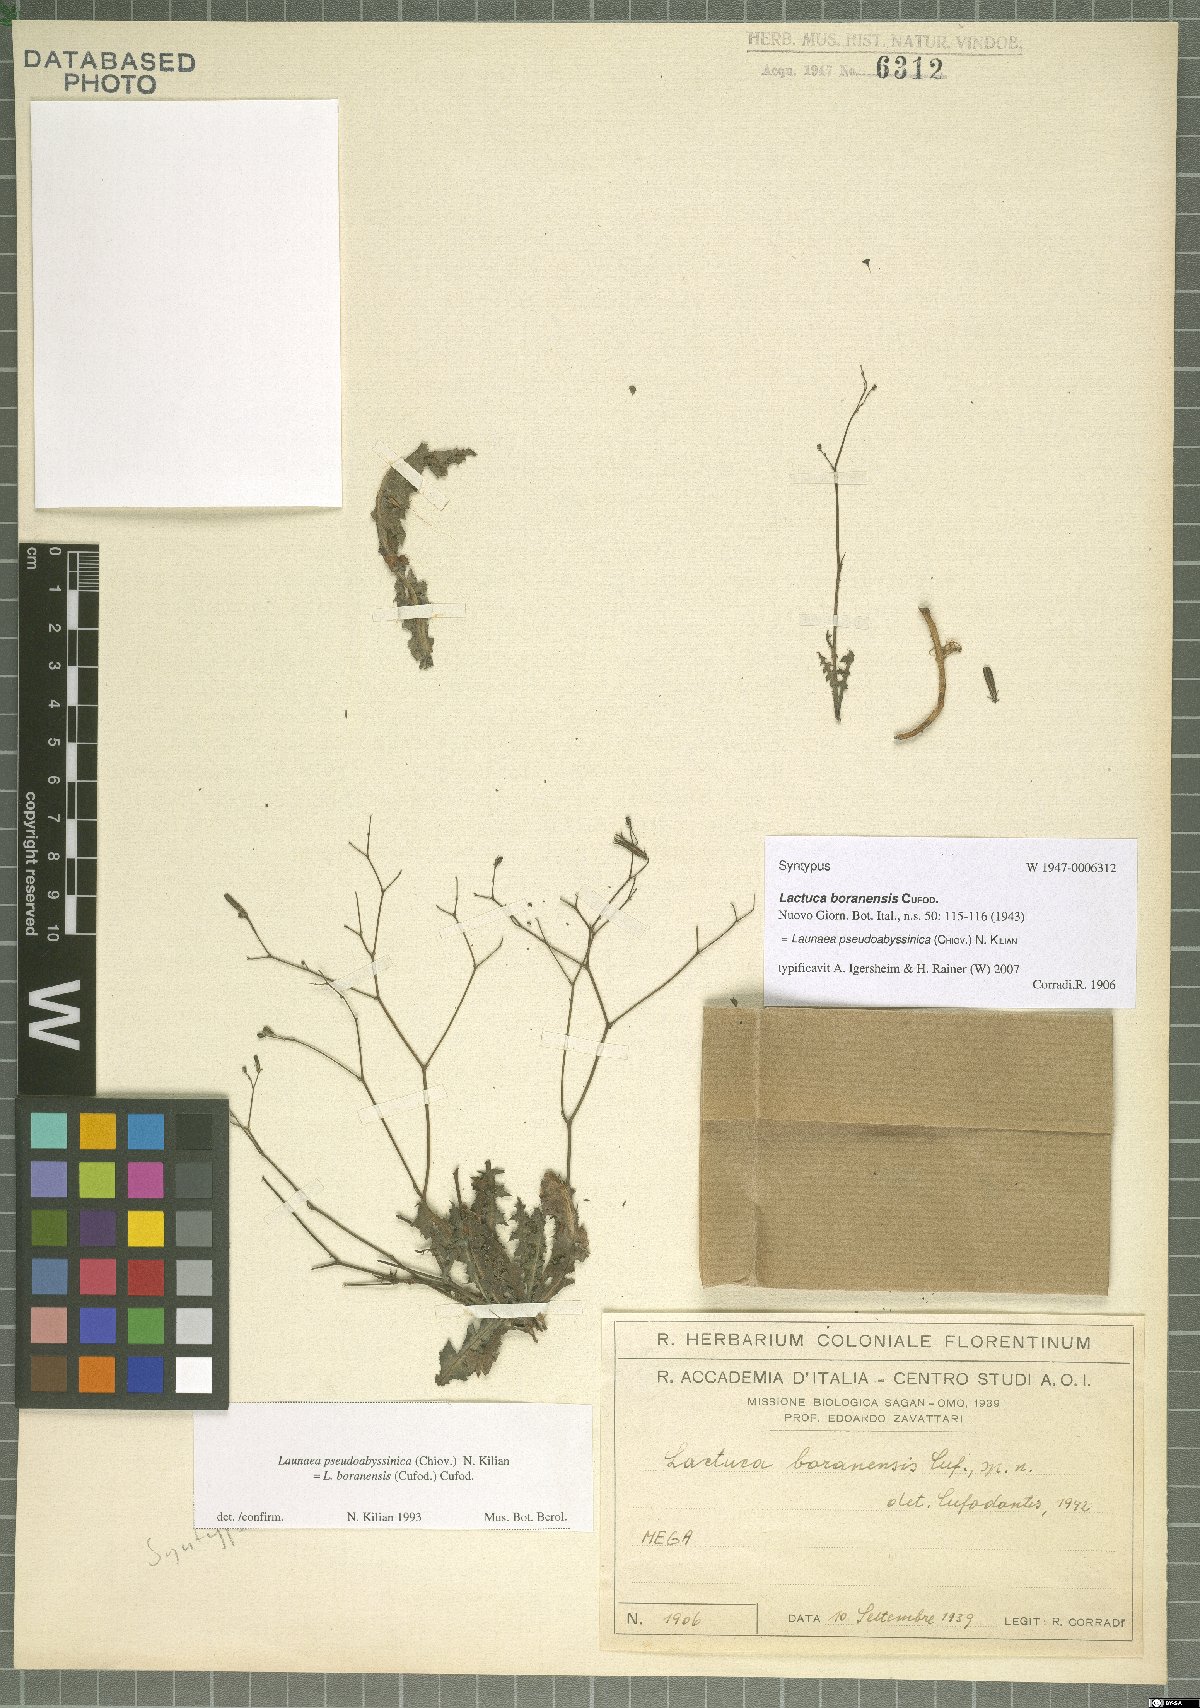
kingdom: Plantae
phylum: Tracheophyta
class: Magnoliopsida
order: Asterales
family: Asteraceae
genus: Launaea
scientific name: Launaea pseudoabyssinica
